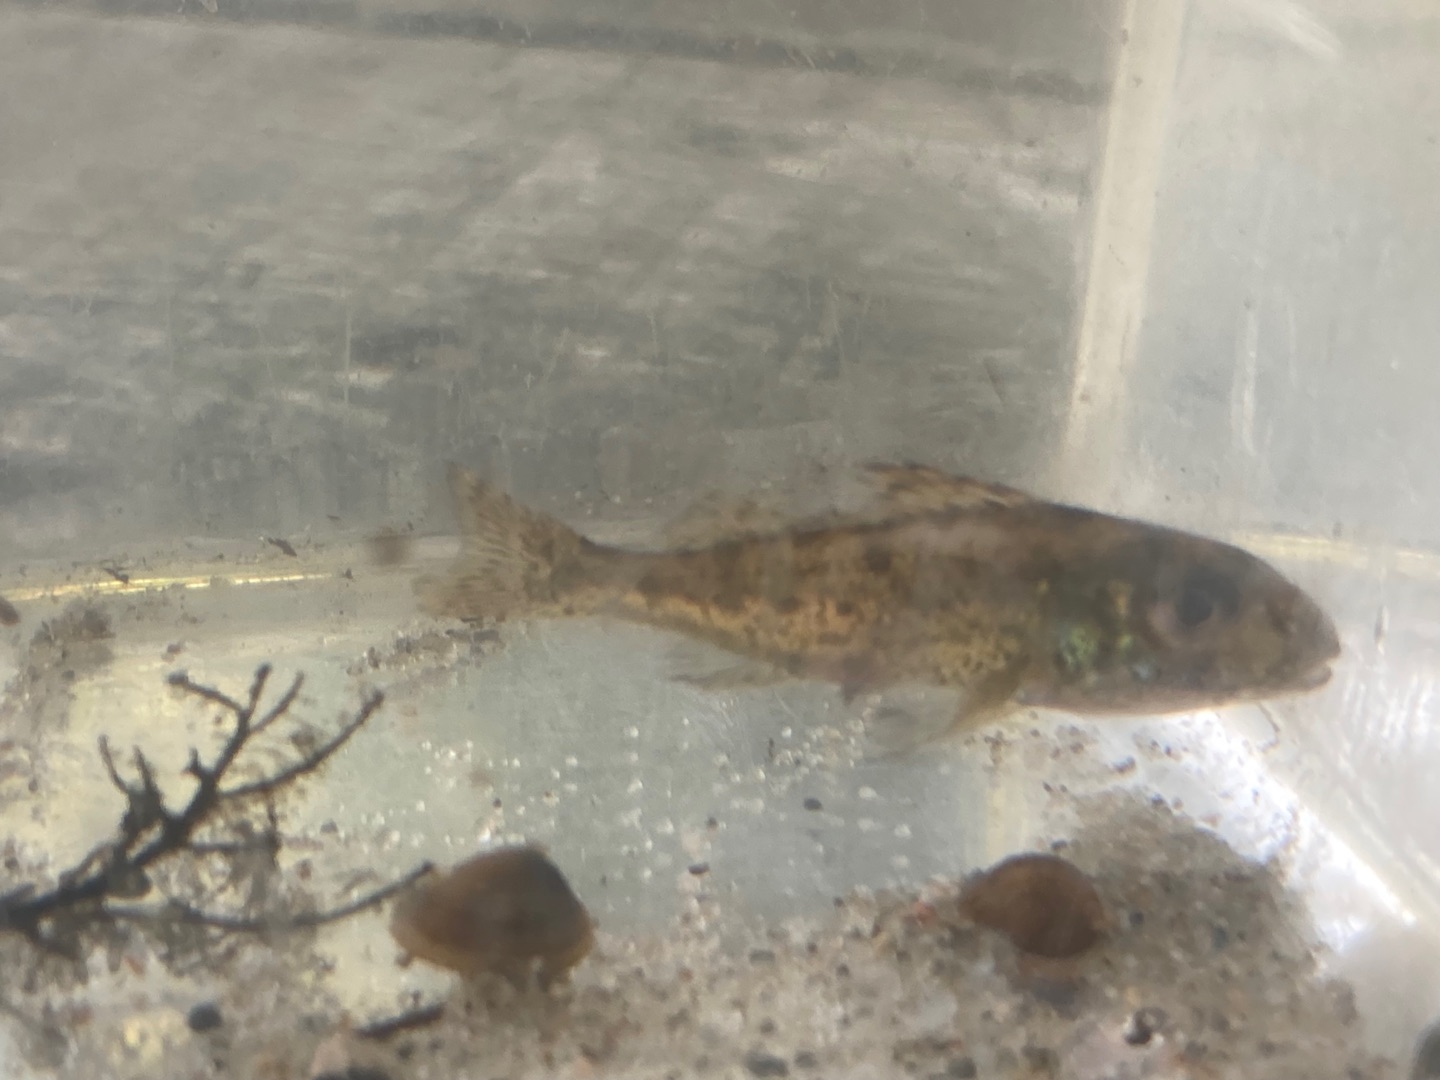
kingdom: Animalia
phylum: Chordata
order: Perciformes
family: Percidae
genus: Gymnocephalus
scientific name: Gymnocephalus cernua
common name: Hork
